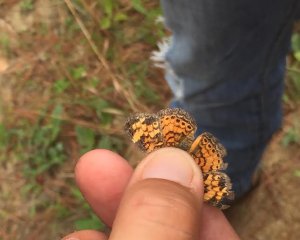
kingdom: Animalia
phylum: Arthropoda
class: Insecta
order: Lepidoptera
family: Nymphalidae
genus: Phyciodes
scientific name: Phyciodes tharos
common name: Pearl Crescent
